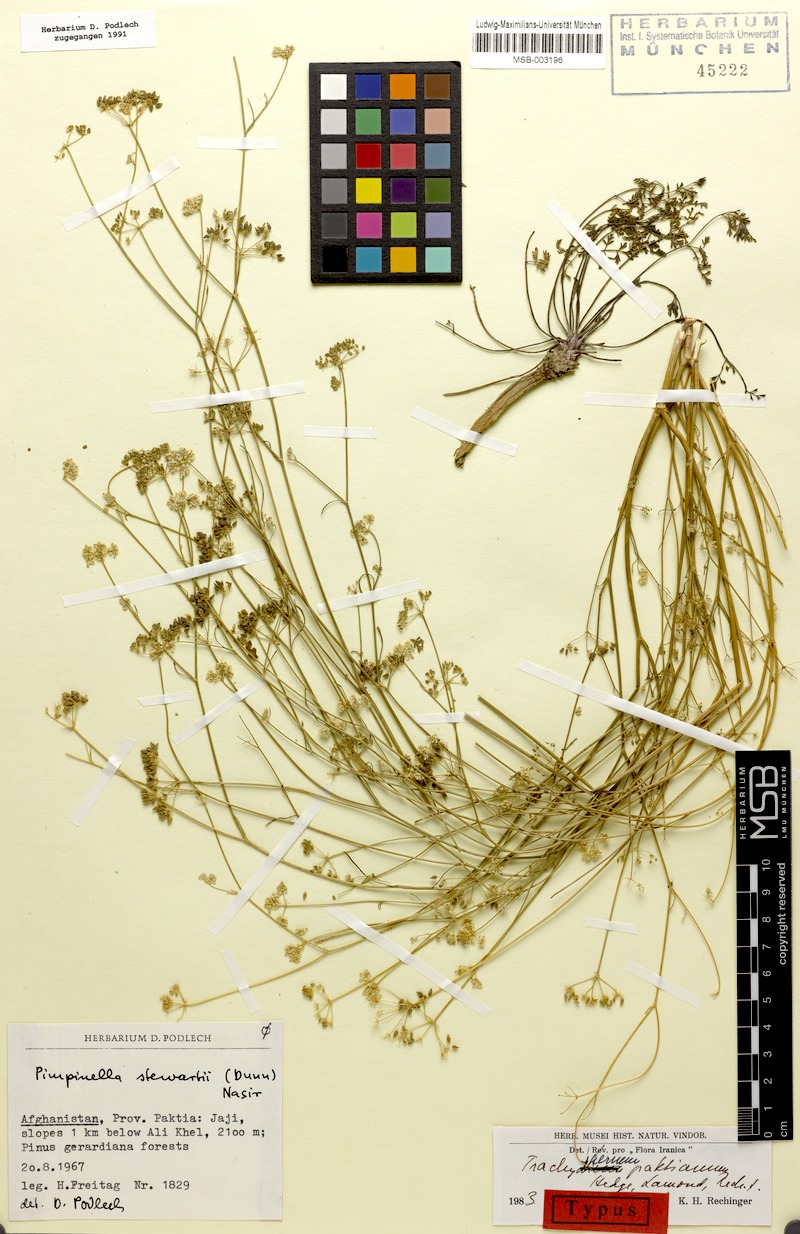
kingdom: Plantae
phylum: Tracheophyta
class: Magnoliopsida
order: Apiales
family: Apiaceae
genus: Psammogeton
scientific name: Psammogeton paktianum
